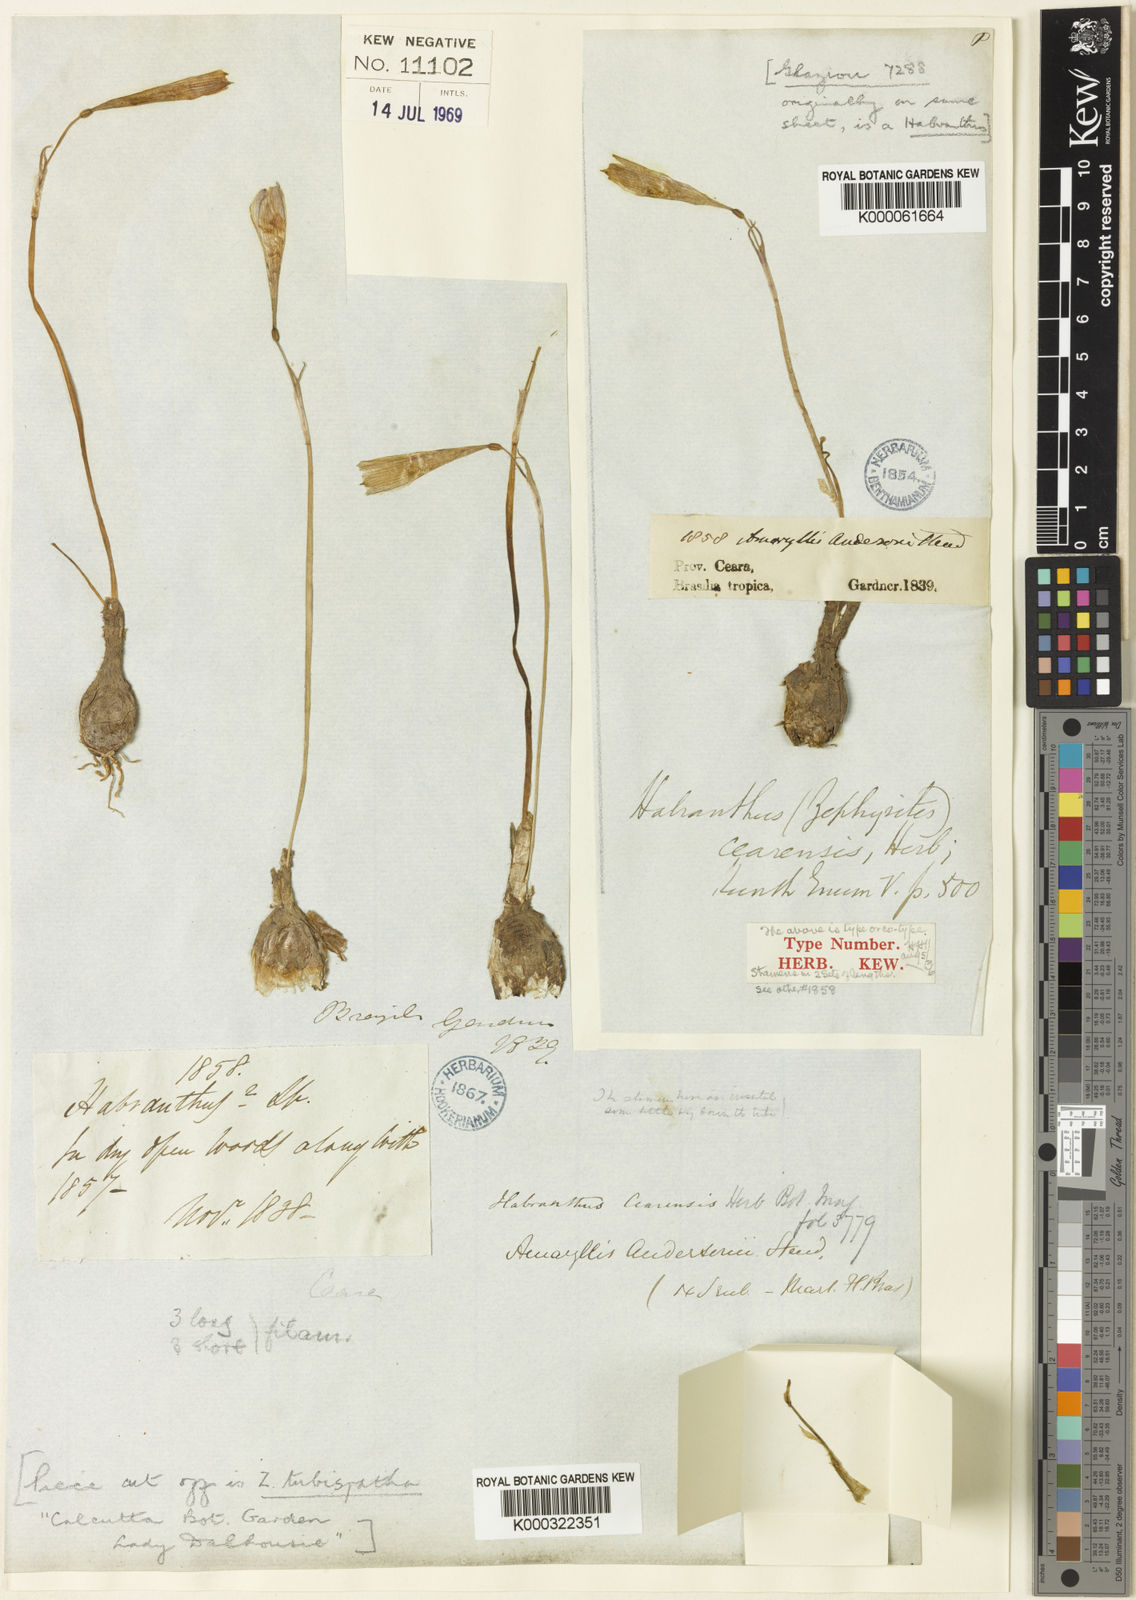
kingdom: Plantae
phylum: Tracheophyta
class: Liliopsida
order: Asparagales
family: Amaryllidaceae
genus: Zephyranthes
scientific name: Zephyranthes cearensis
